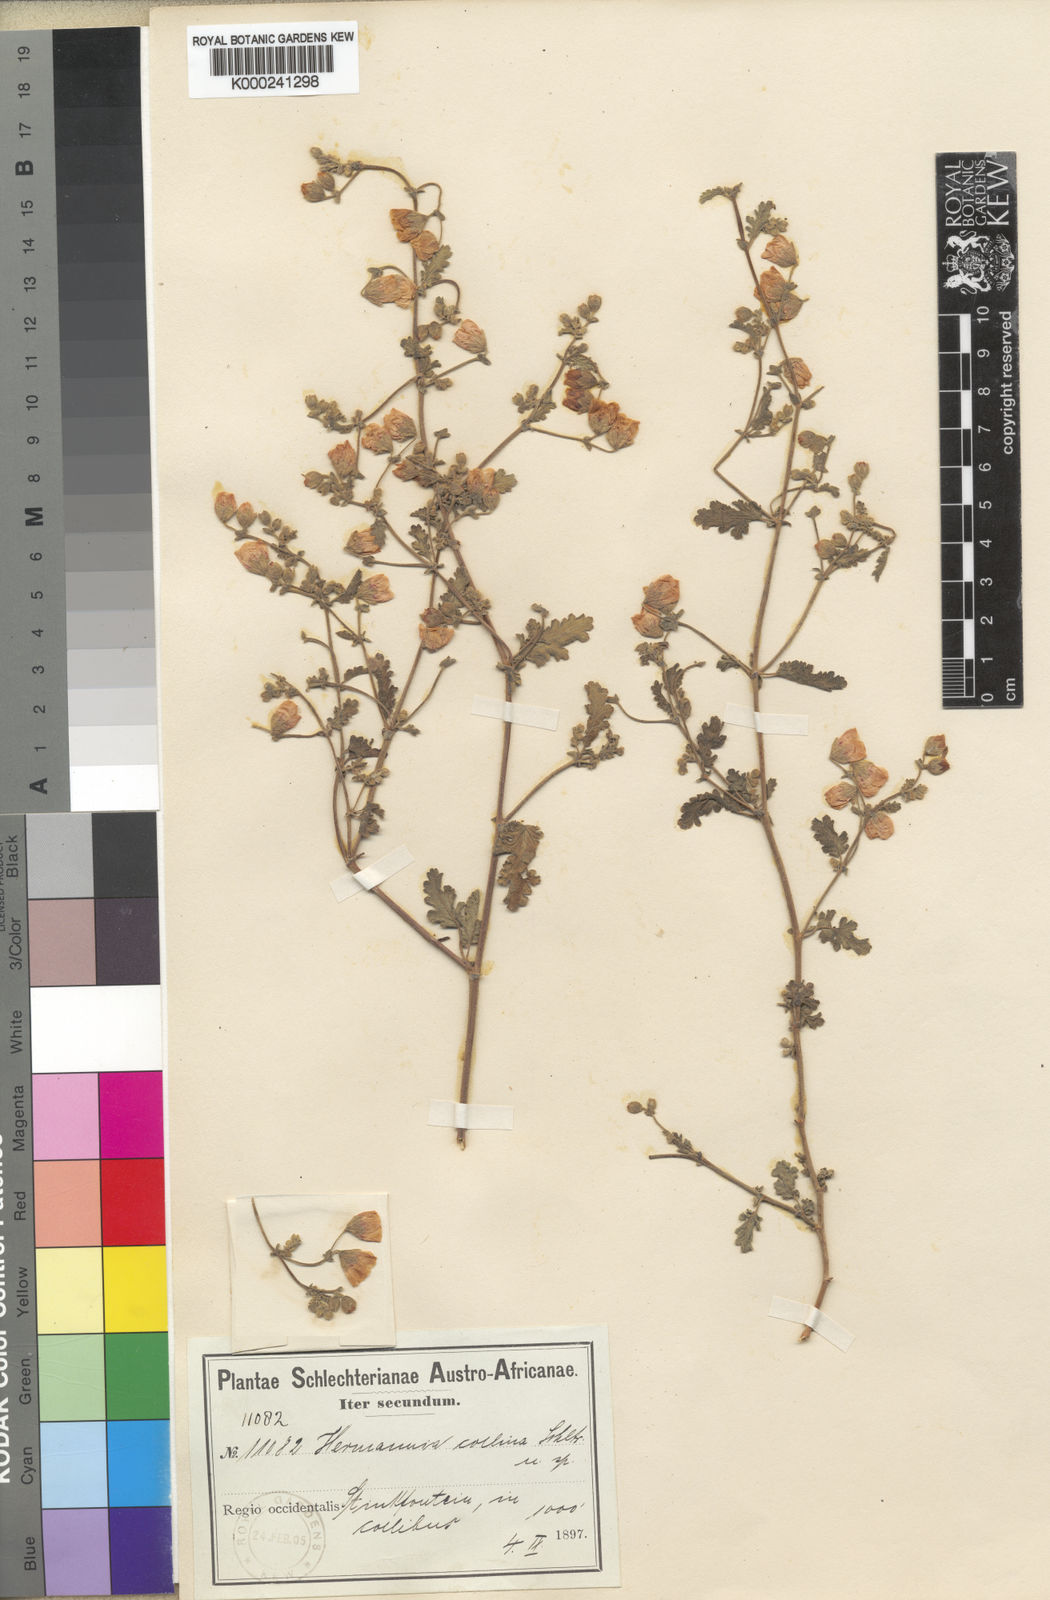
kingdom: Plantae
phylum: Tracheophyta
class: Magnoliopsida
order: Malvales
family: Malvaceae
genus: Hermannia
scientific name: Hermannia stipitata
